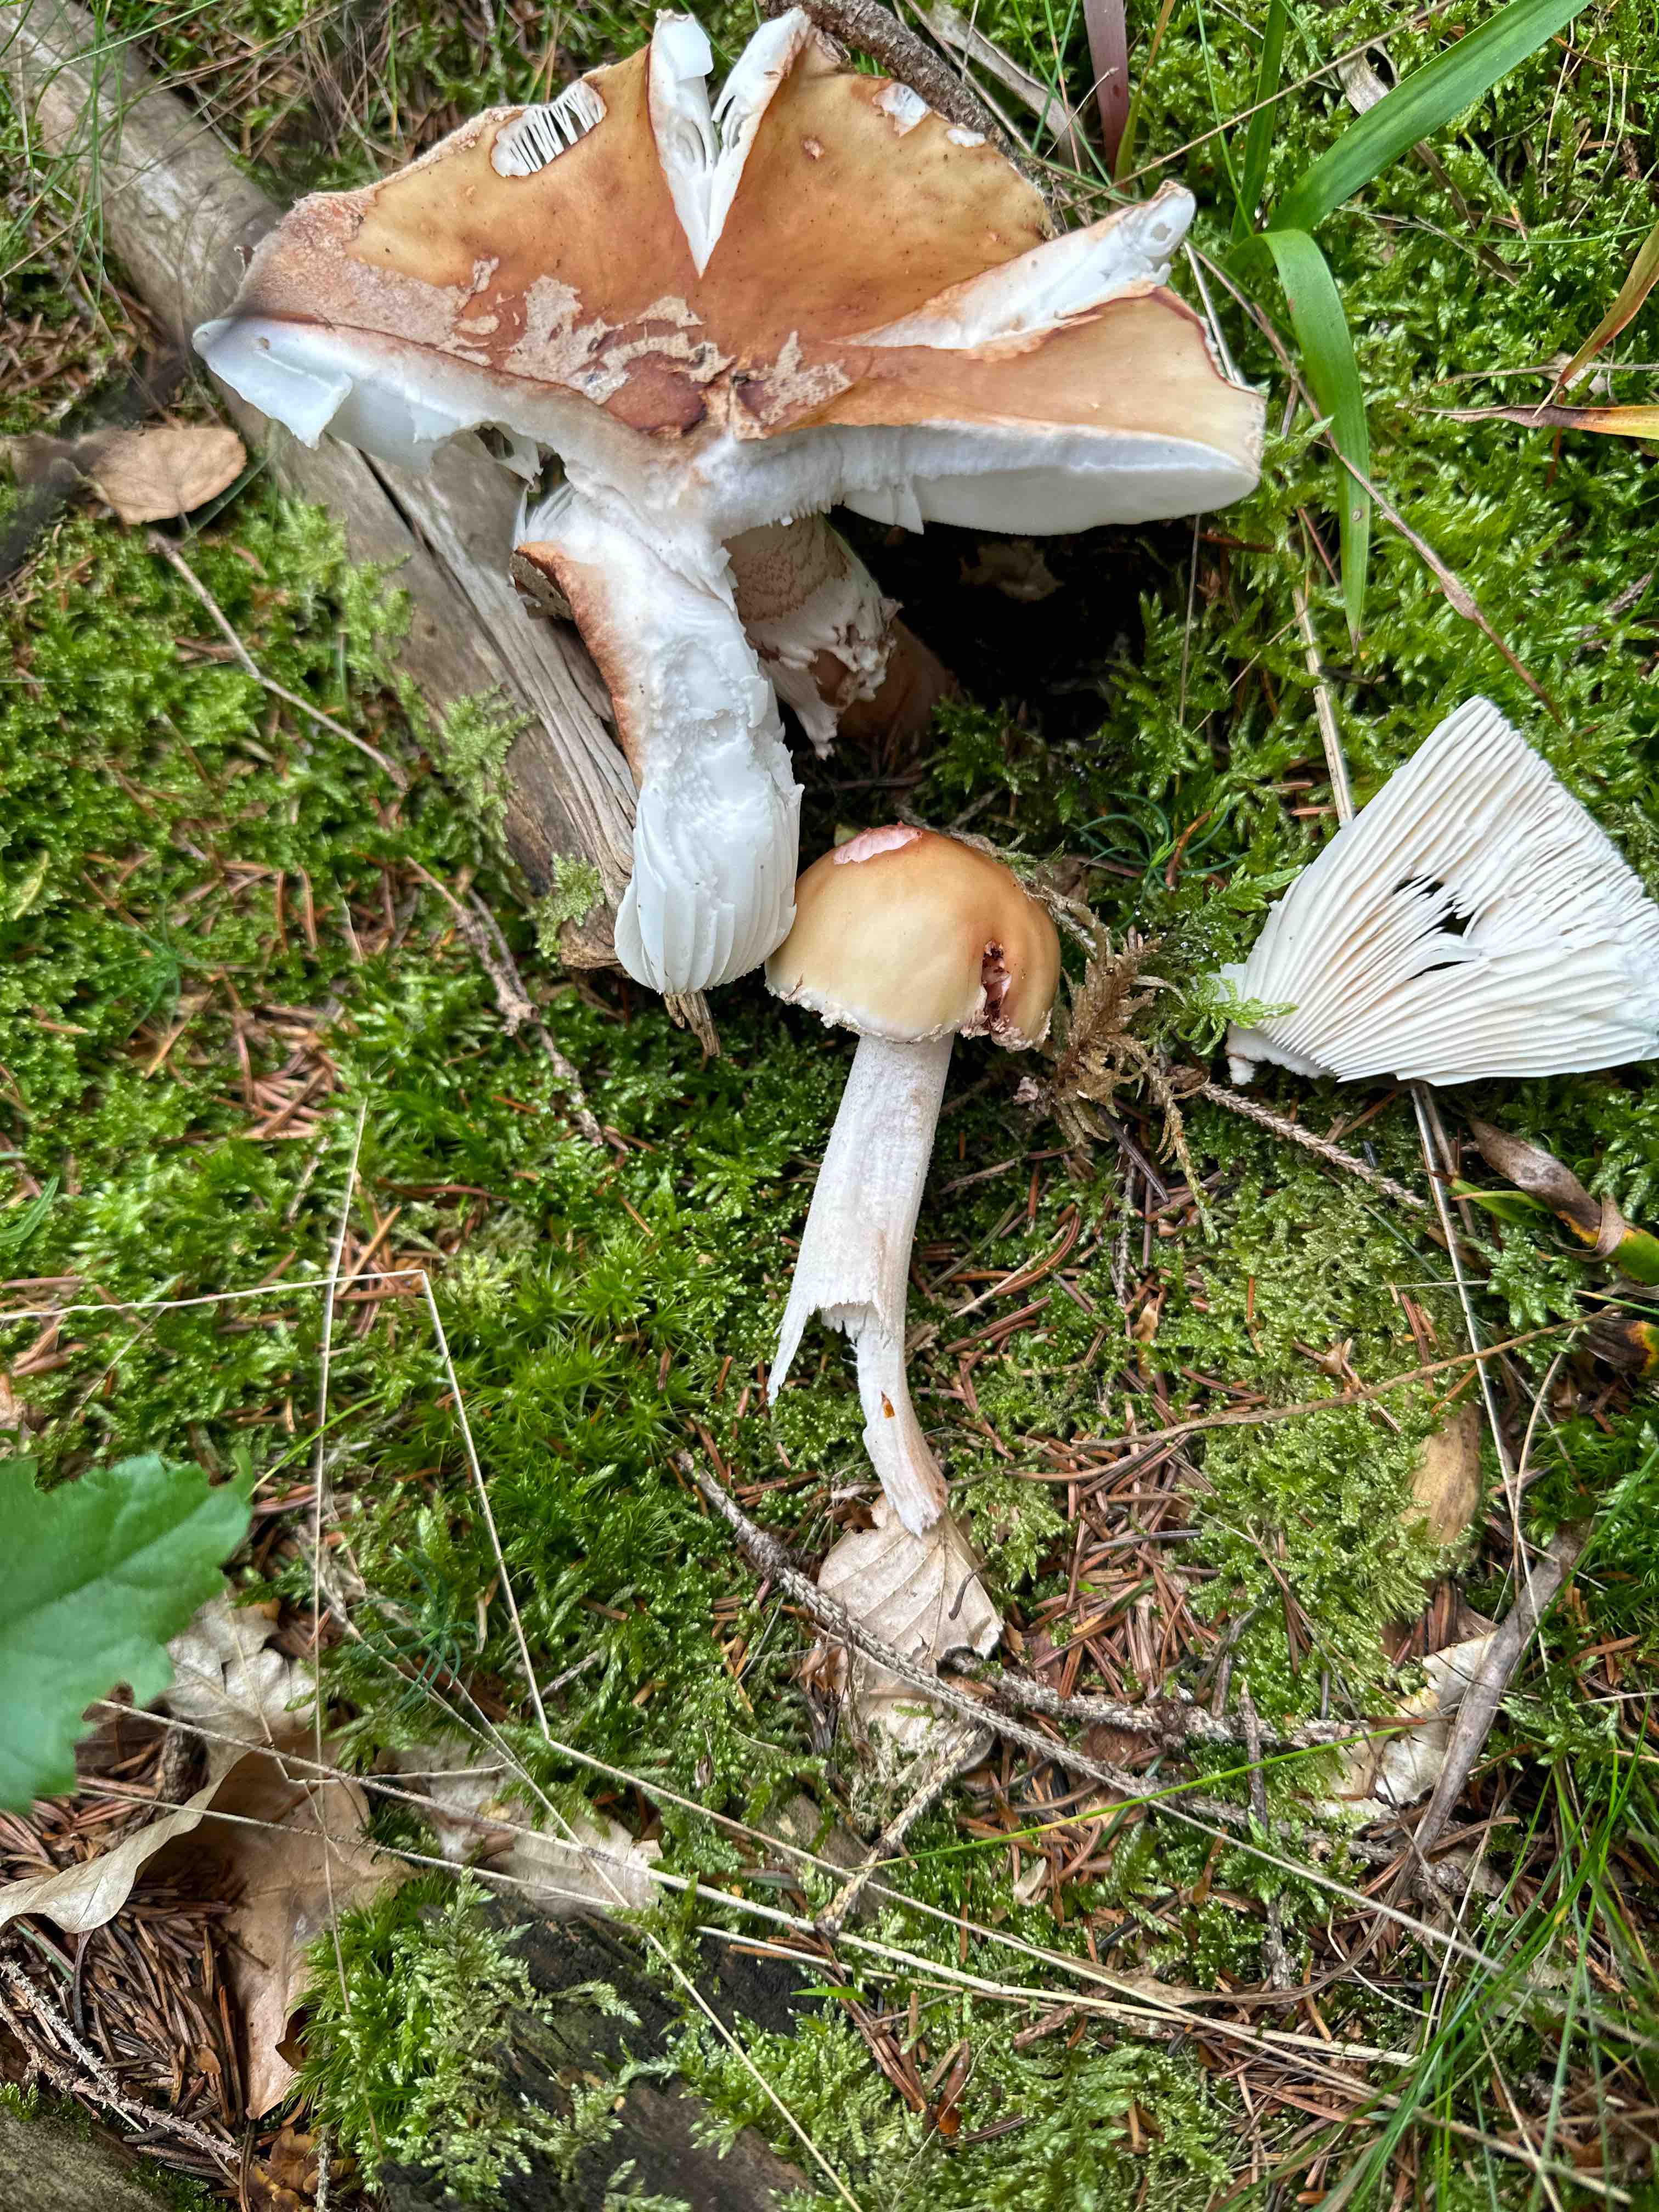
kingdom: Fungi
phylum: Basidiomycota
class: Agaricomycetes
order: Agaricales
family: Amanitaceae
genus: Amanita
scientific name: Amanita fulva
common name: brun kam-fluesvamp
